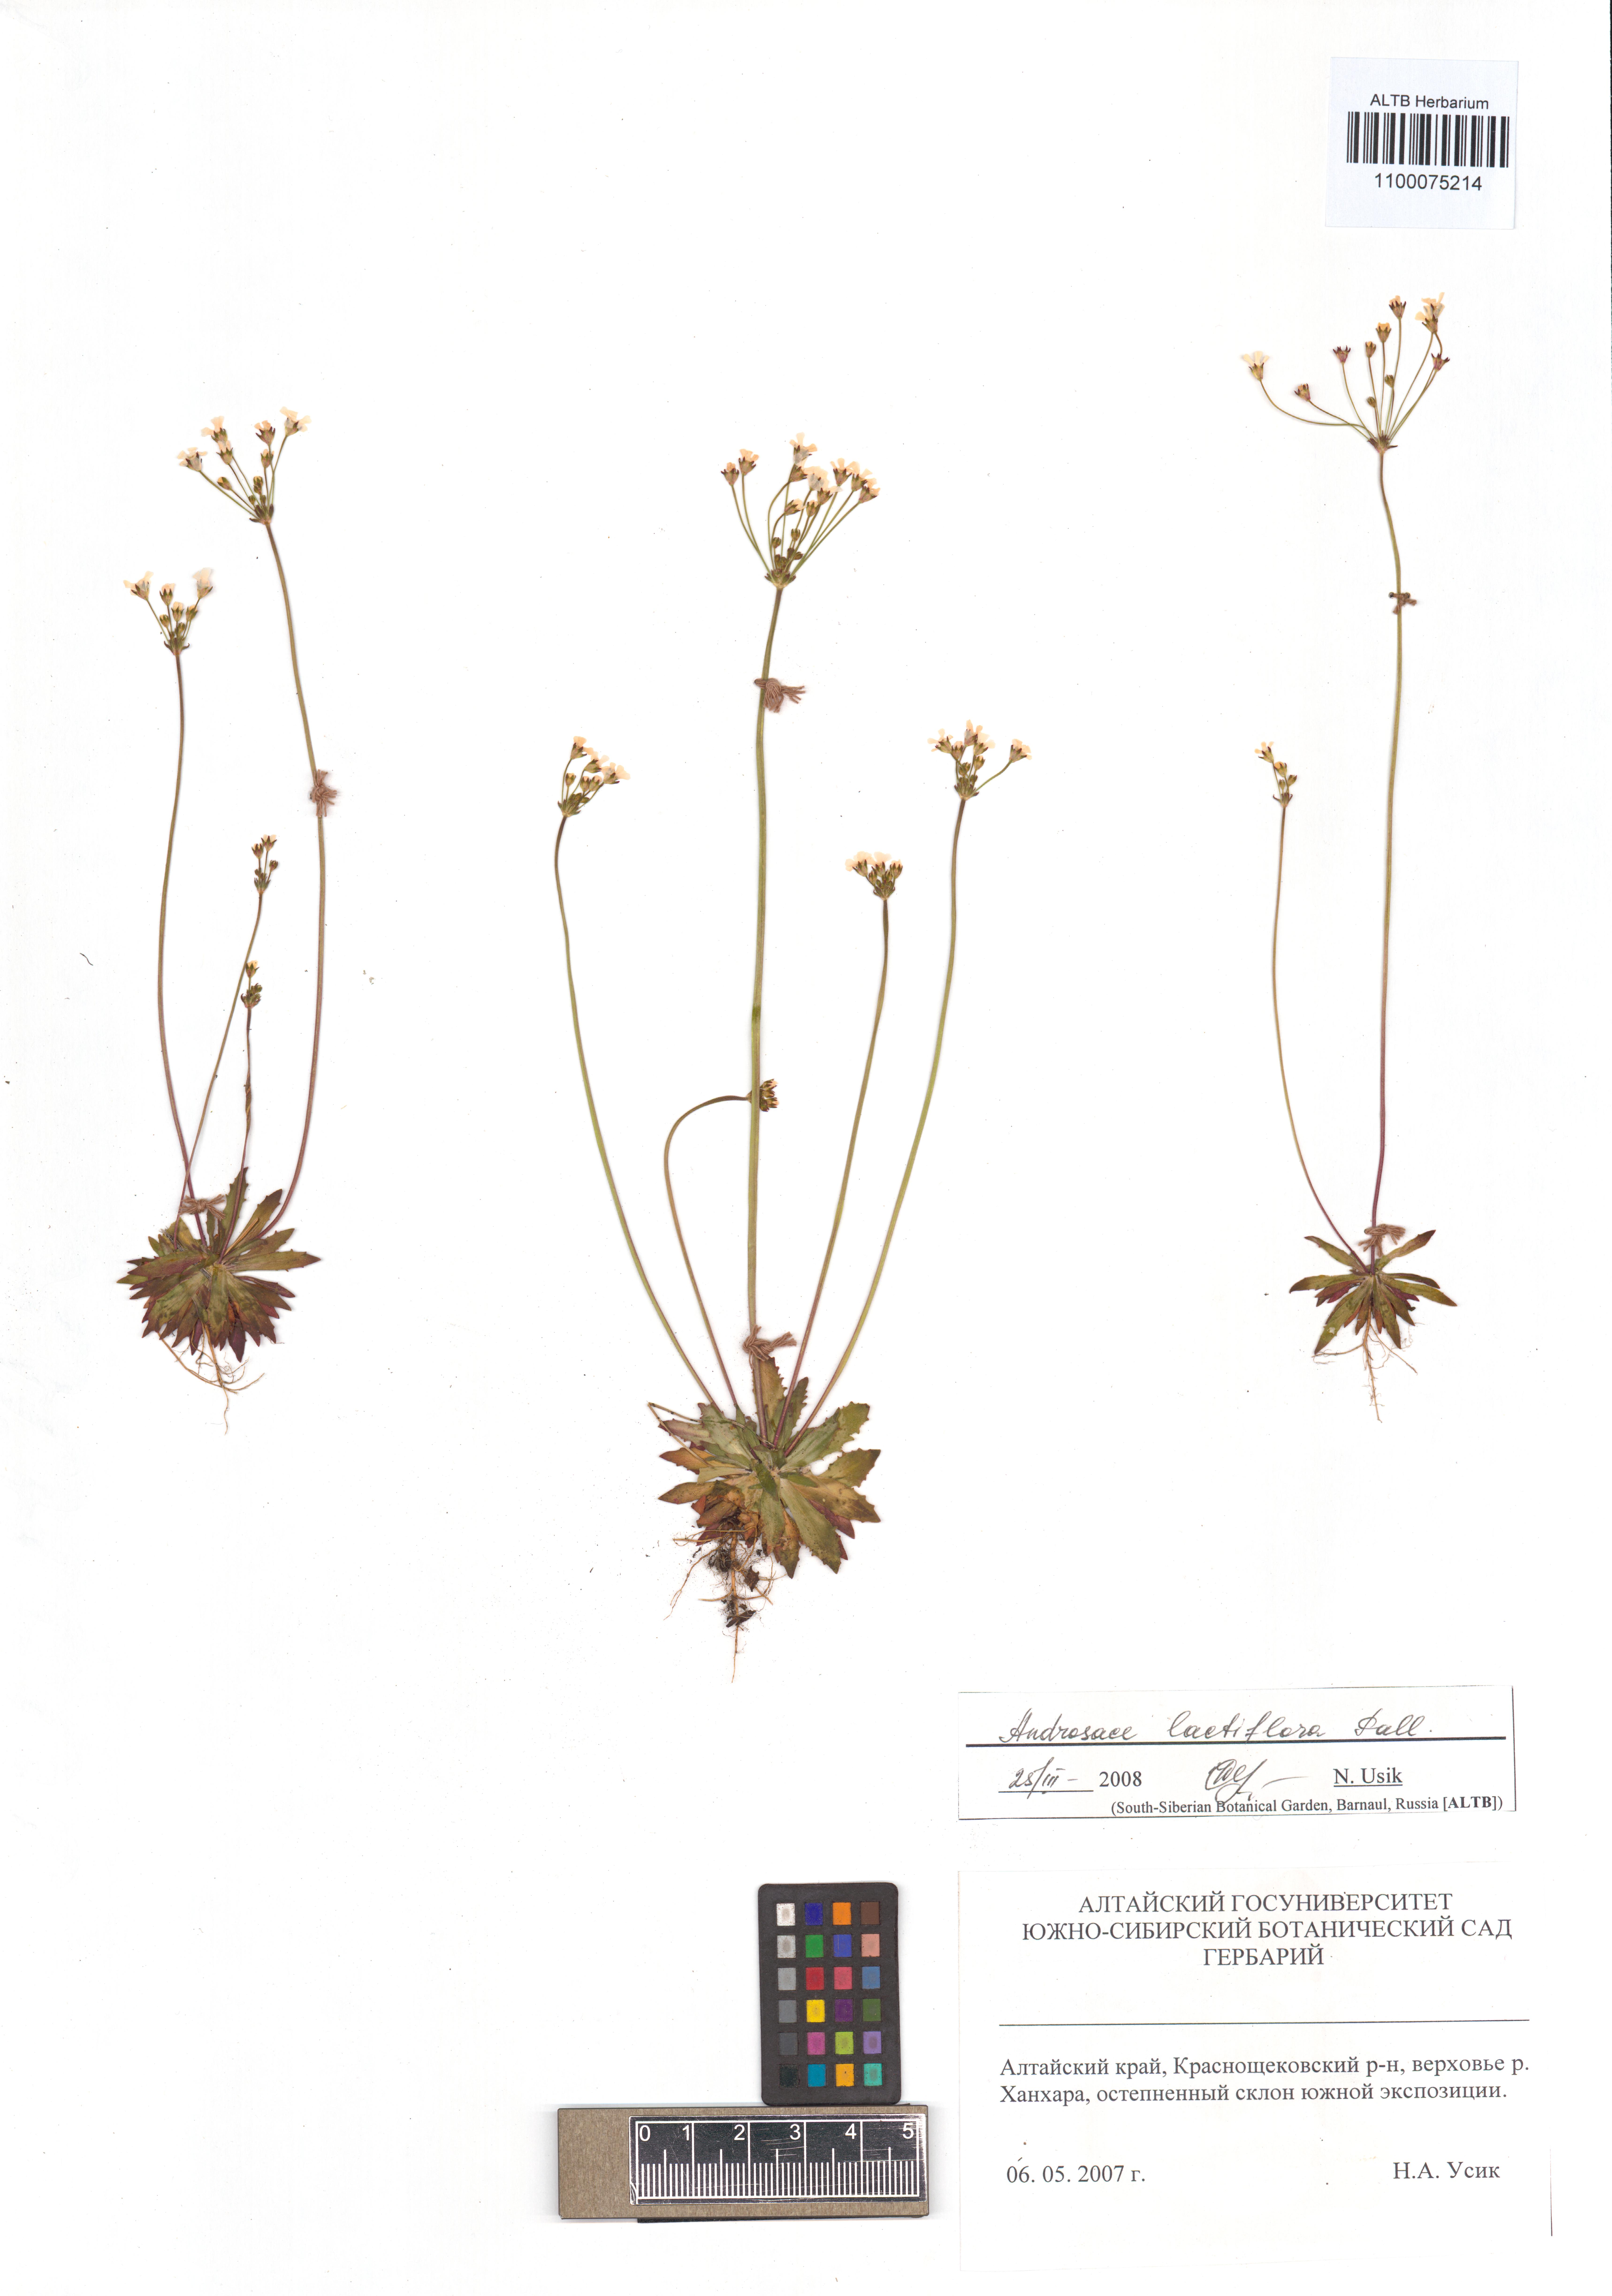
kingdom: Plantae
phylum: Tracheophyta
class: Magnoliopsida
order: Ericales
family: Primulaceae
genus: Androsace
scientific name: Androsace lactiflora
